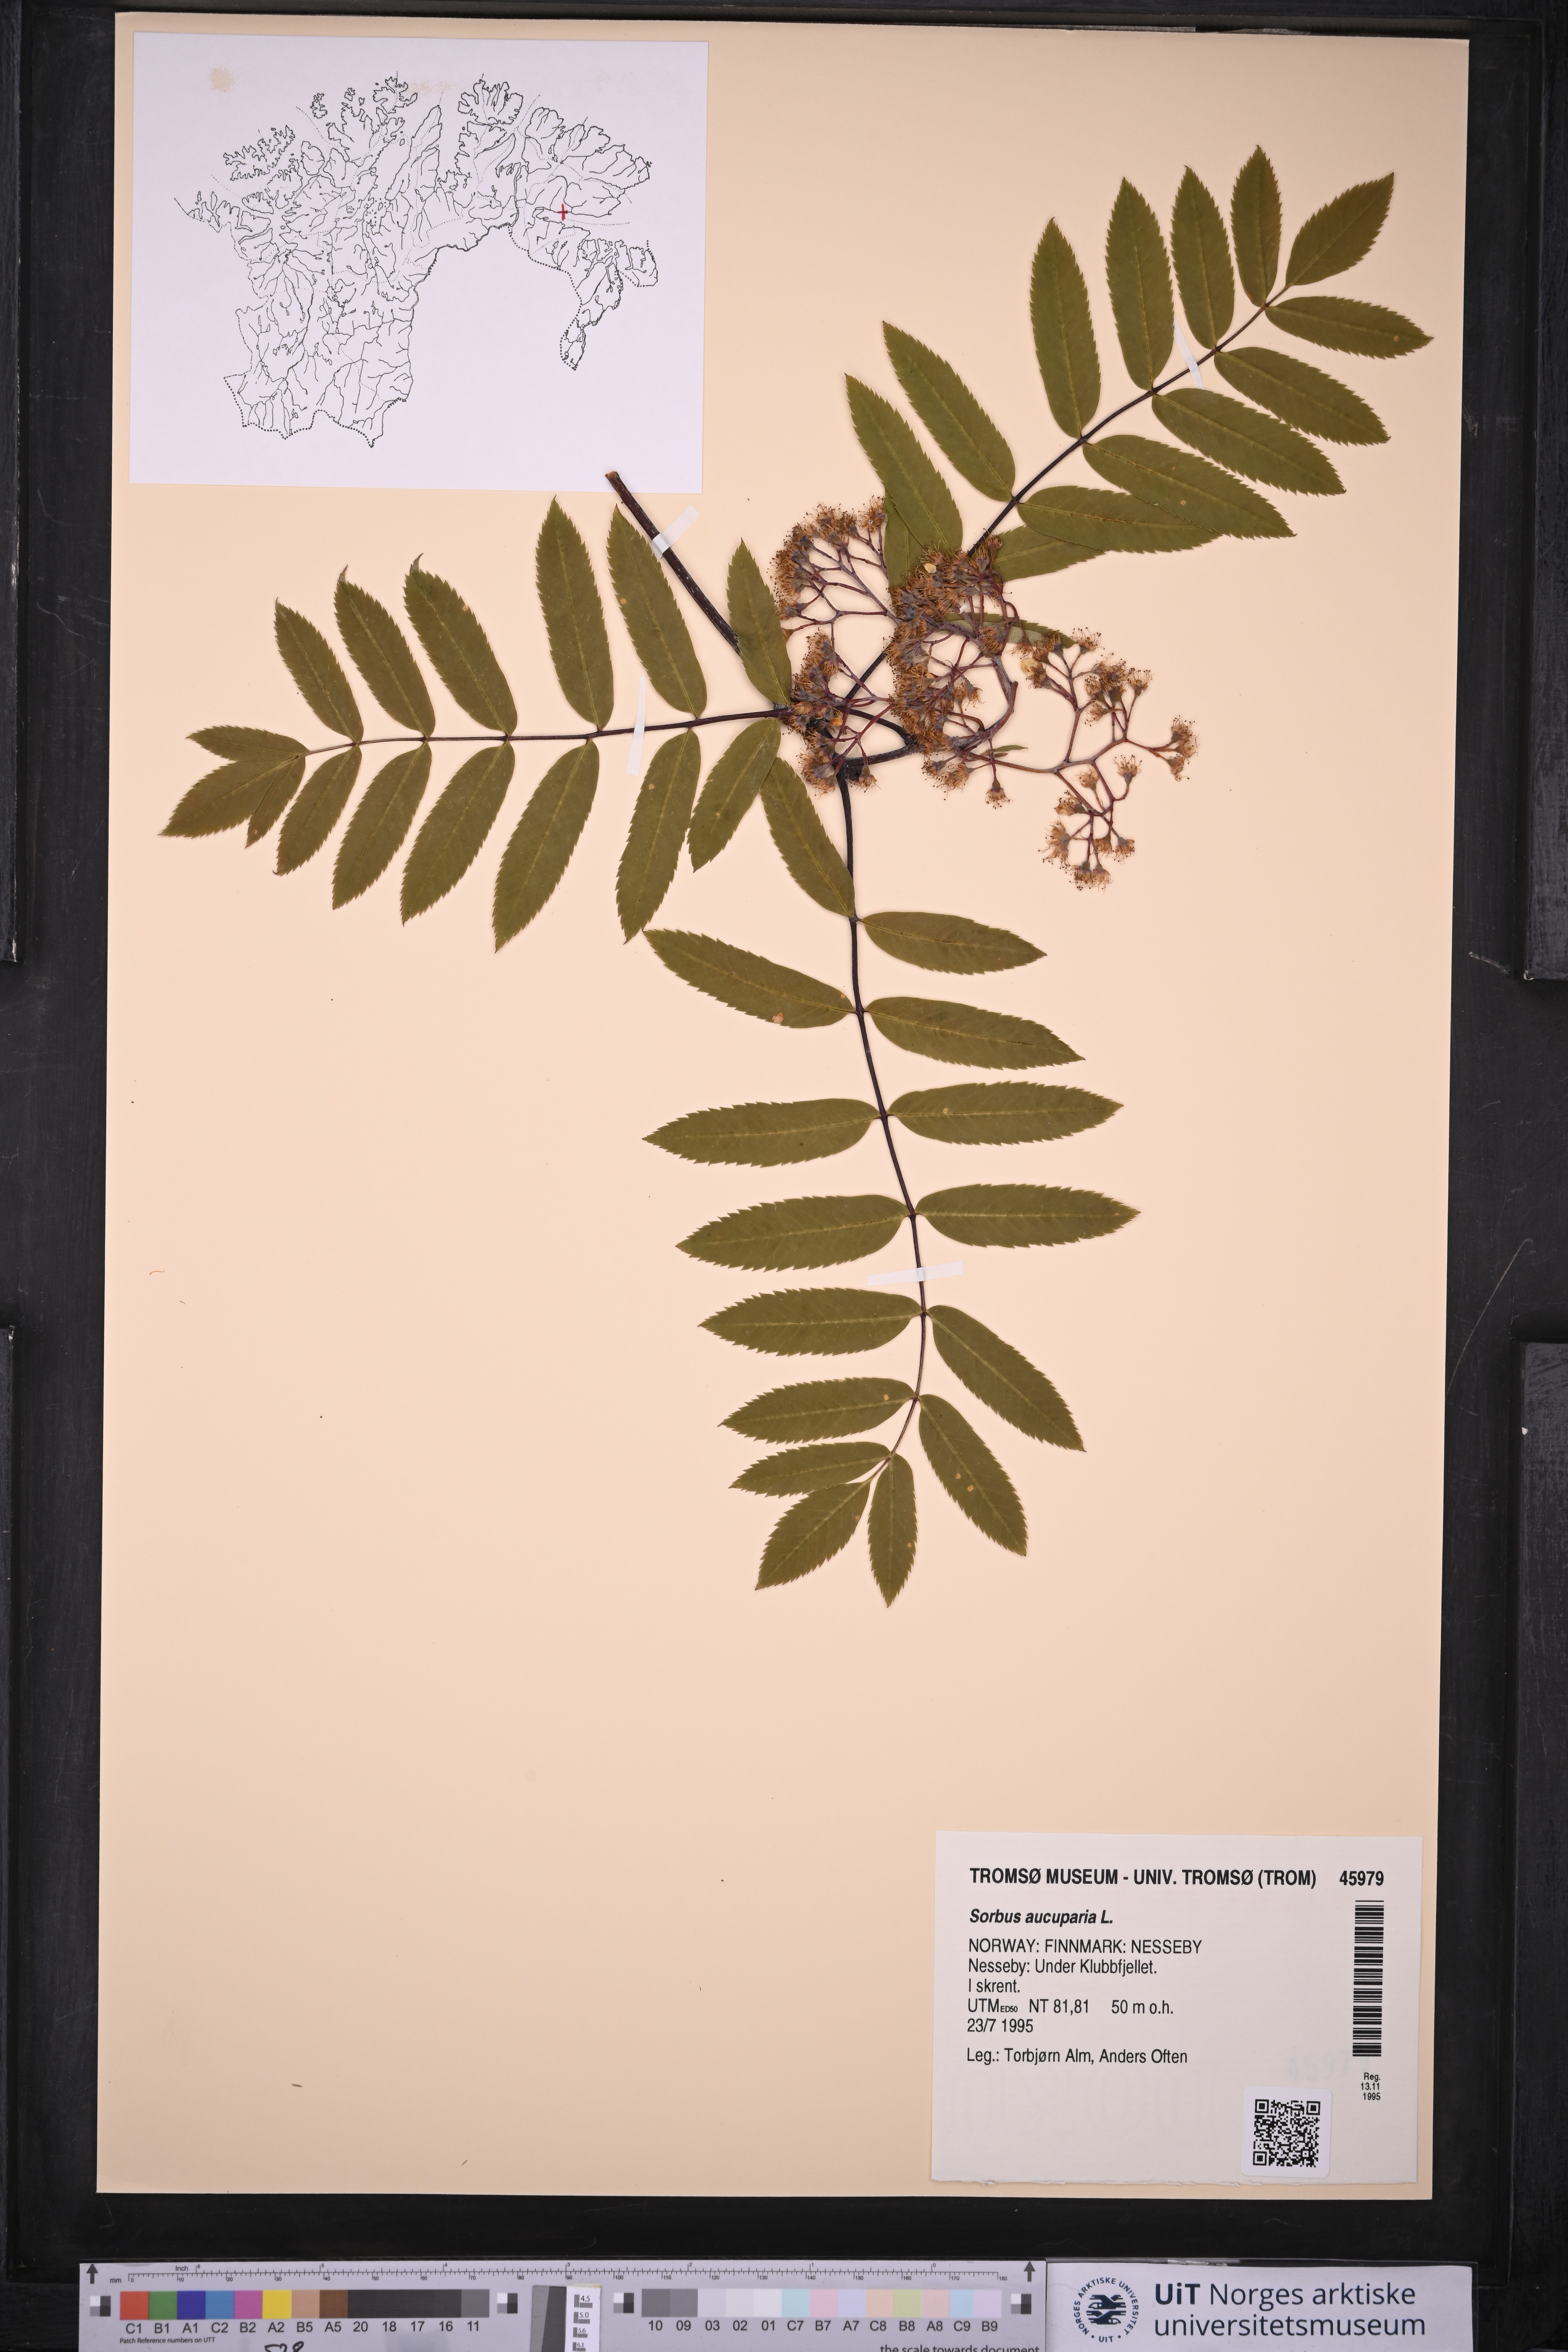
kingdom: Plantae
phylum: Tracheophyta
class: Magnoliopsida
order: Rosales
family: Rosaceae
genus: Sorbus
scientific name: Sorbus aucuparia
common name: Rowan
